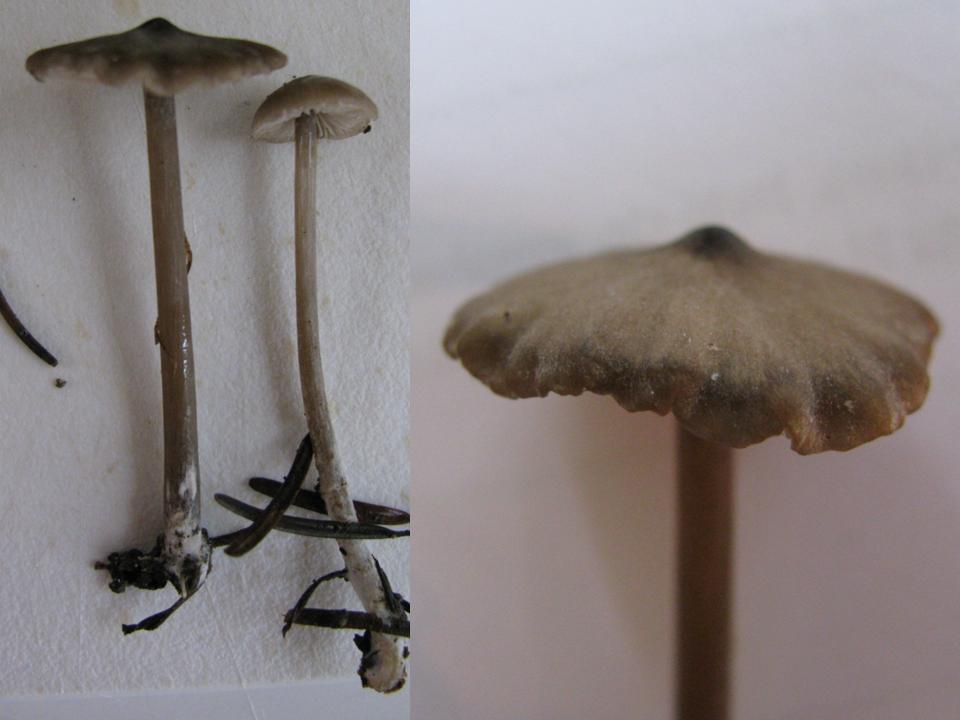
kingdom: Fungi
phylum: Basidiomycota
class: Agaricomycetes
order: Agaricales
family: Entolomataceae
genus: Entoloma
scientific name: Entoloma hebes
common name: krat-rødblad
